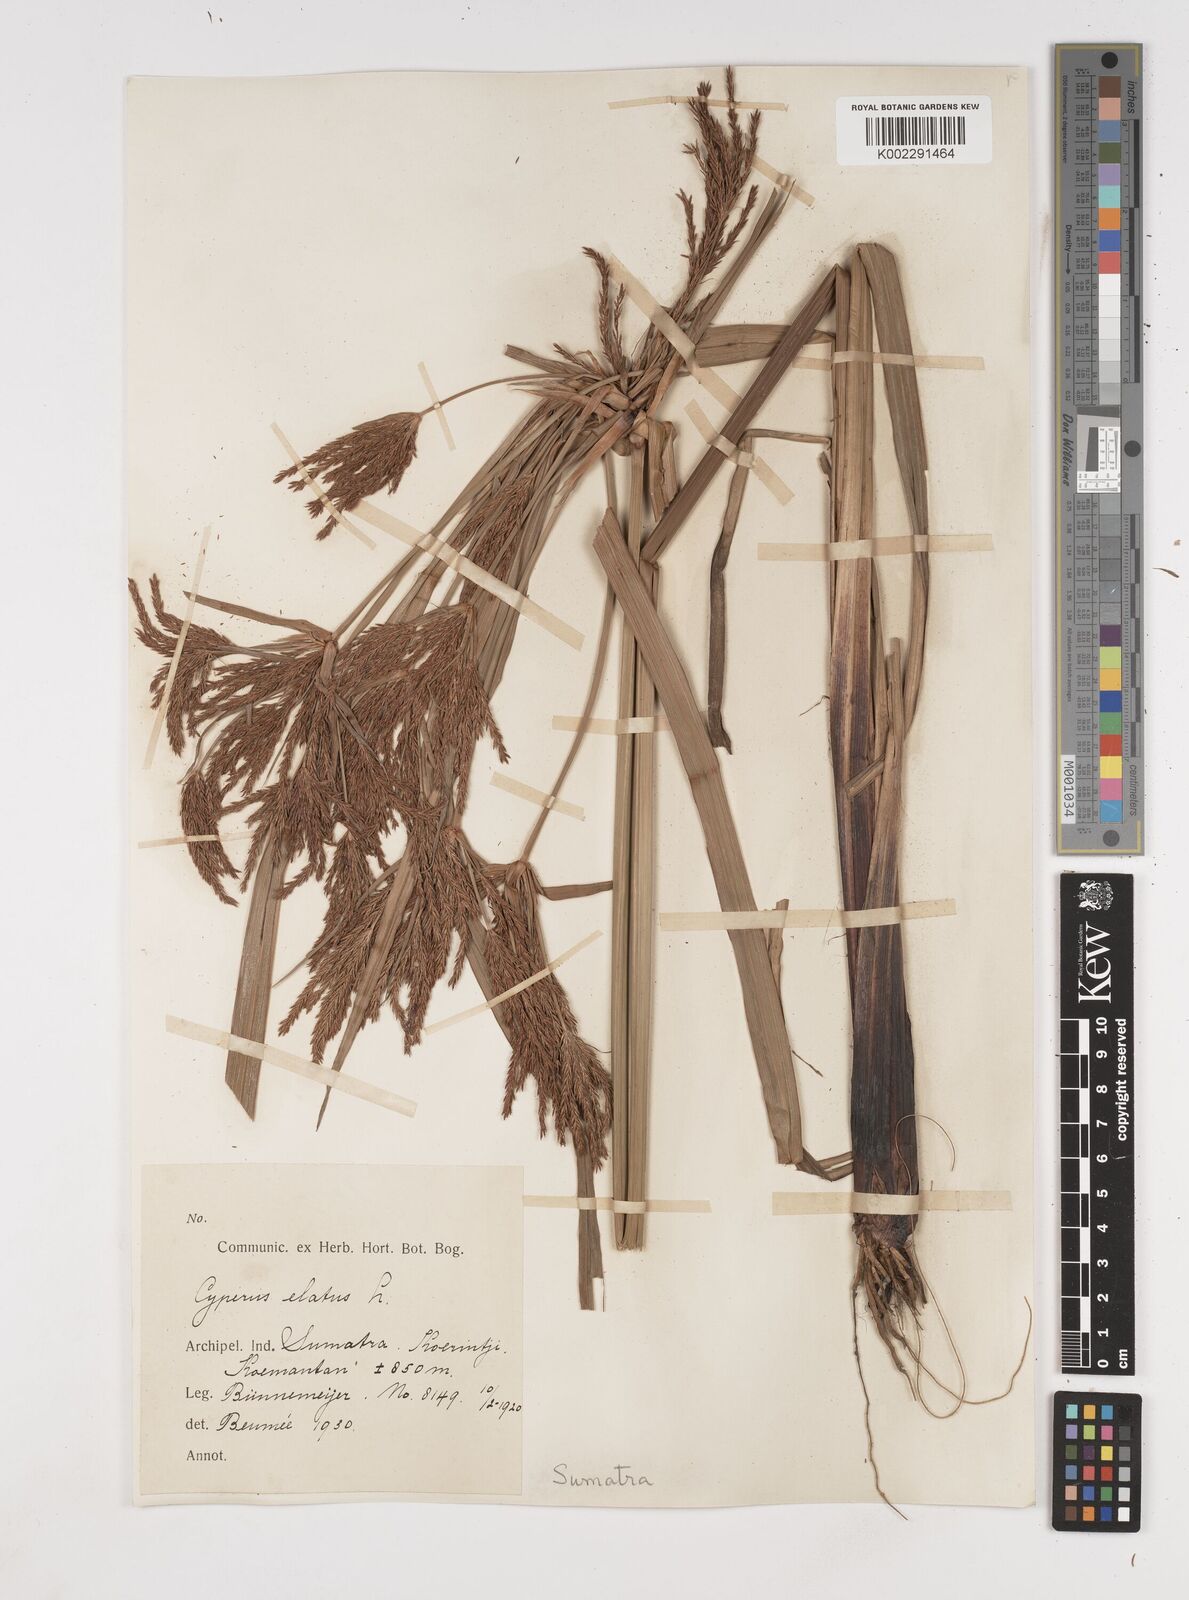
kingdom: Plantae
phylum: Tracheophyta
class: Liliopsida
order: Poales
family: Cyperaceae
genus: Cyperus
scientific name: Cyperus elatus
